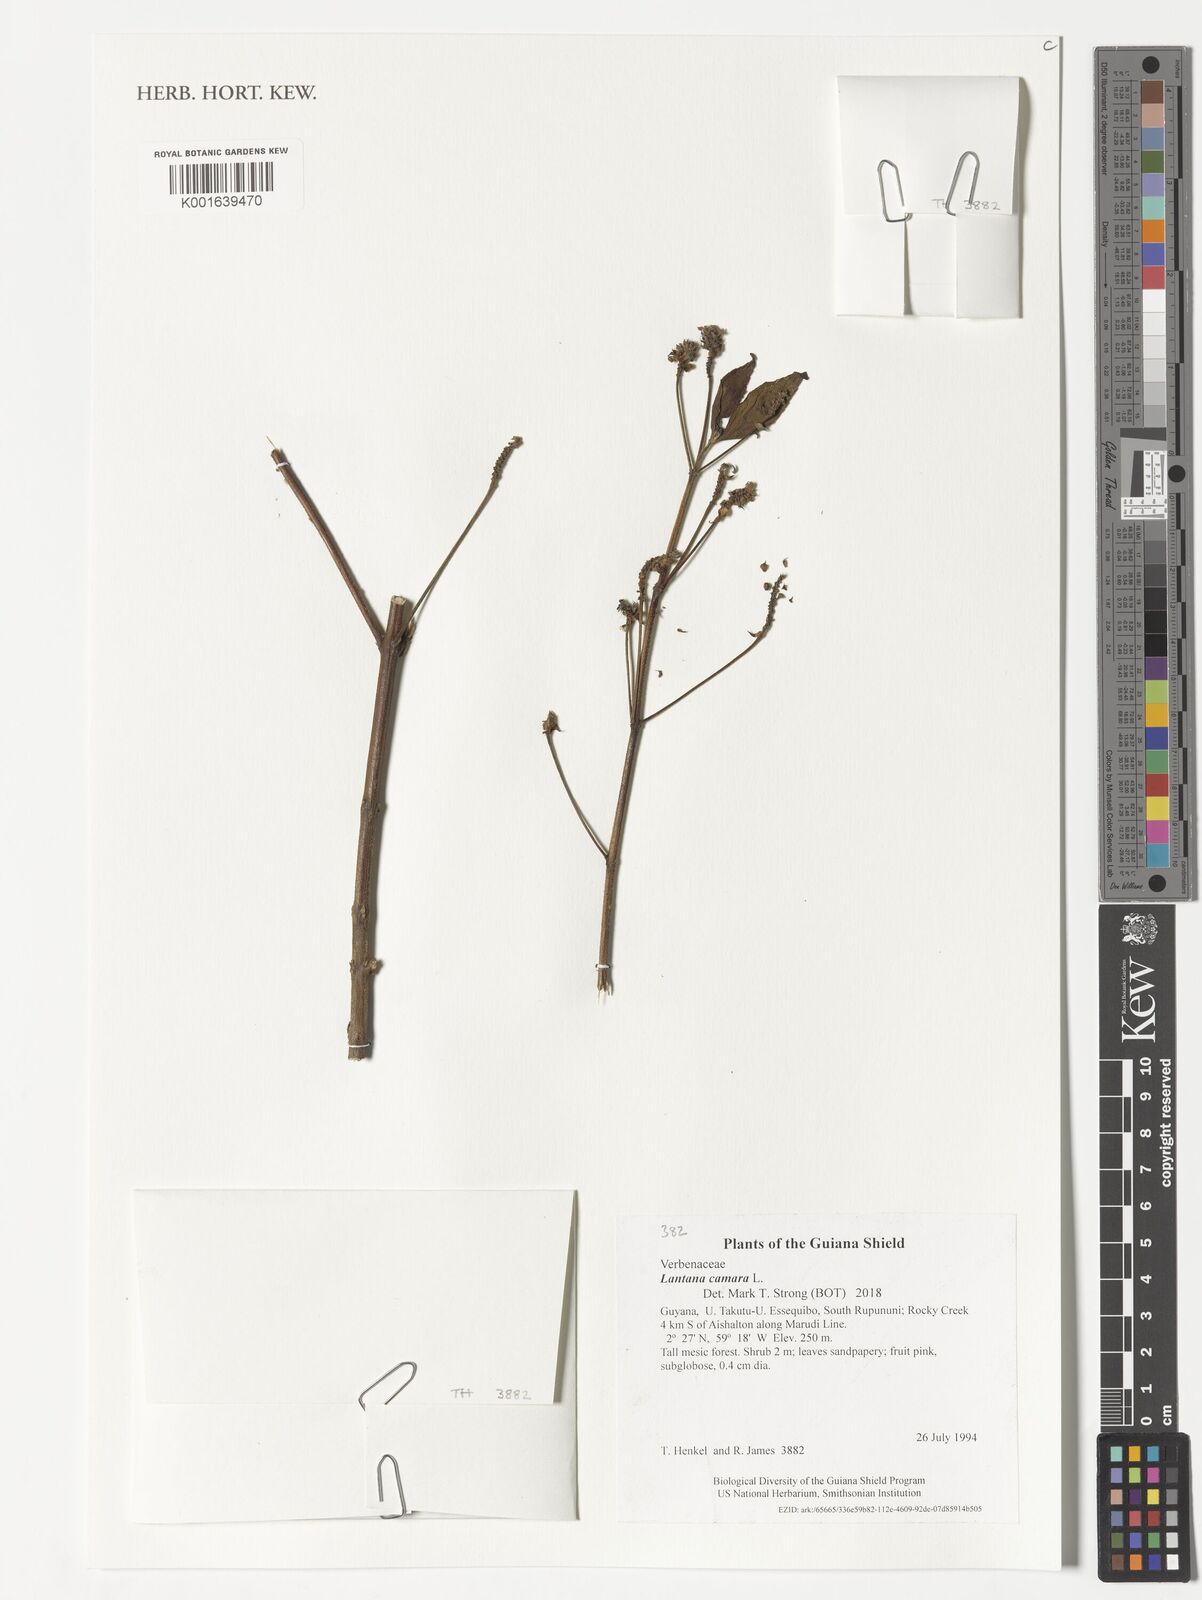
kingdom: Plantae
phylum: Tracheophyta
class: Magnoliopsida
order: Lamiales
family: Verbenaceae
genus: Lantana
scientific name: Lantana camara
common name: Lantana
